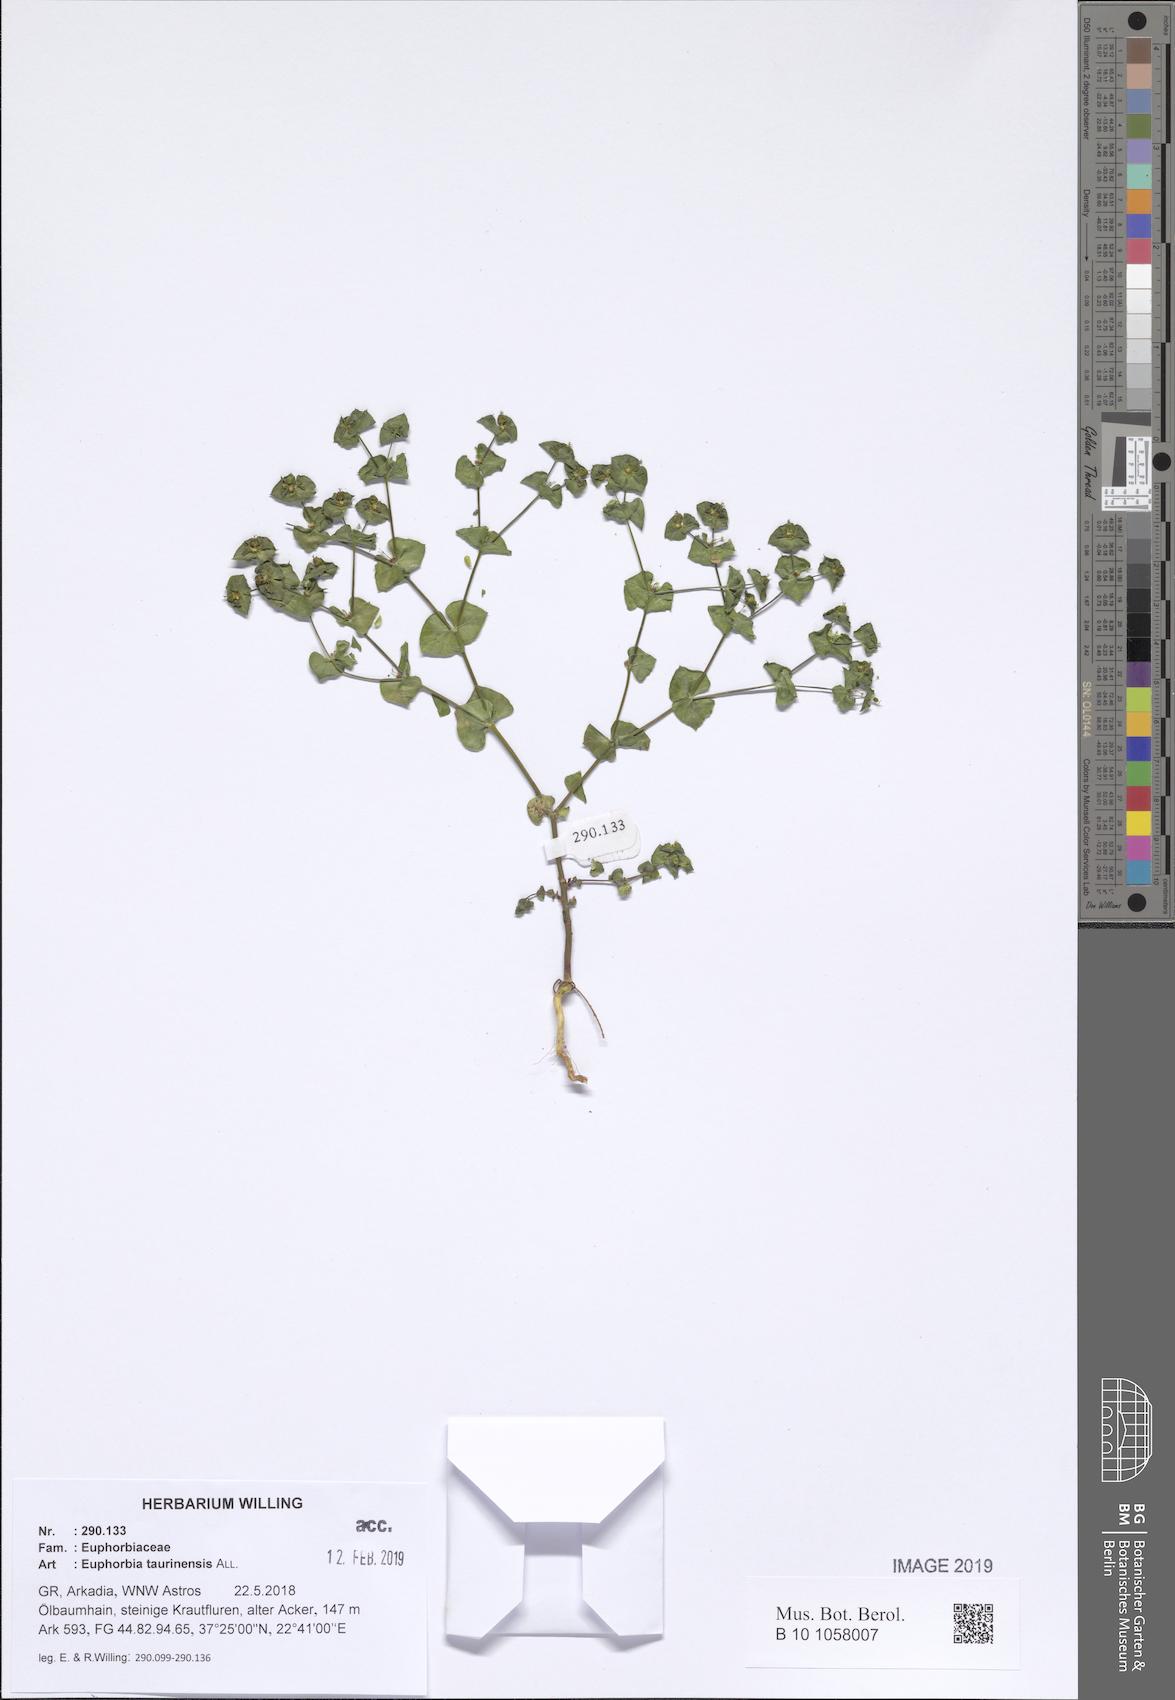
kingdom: Plantae
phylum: Tracheophyta
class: Magnoliopsida
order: Malpighiales
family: Euphorbiaceae
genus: Euphorbia
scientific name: Euphorbia taurinensis
